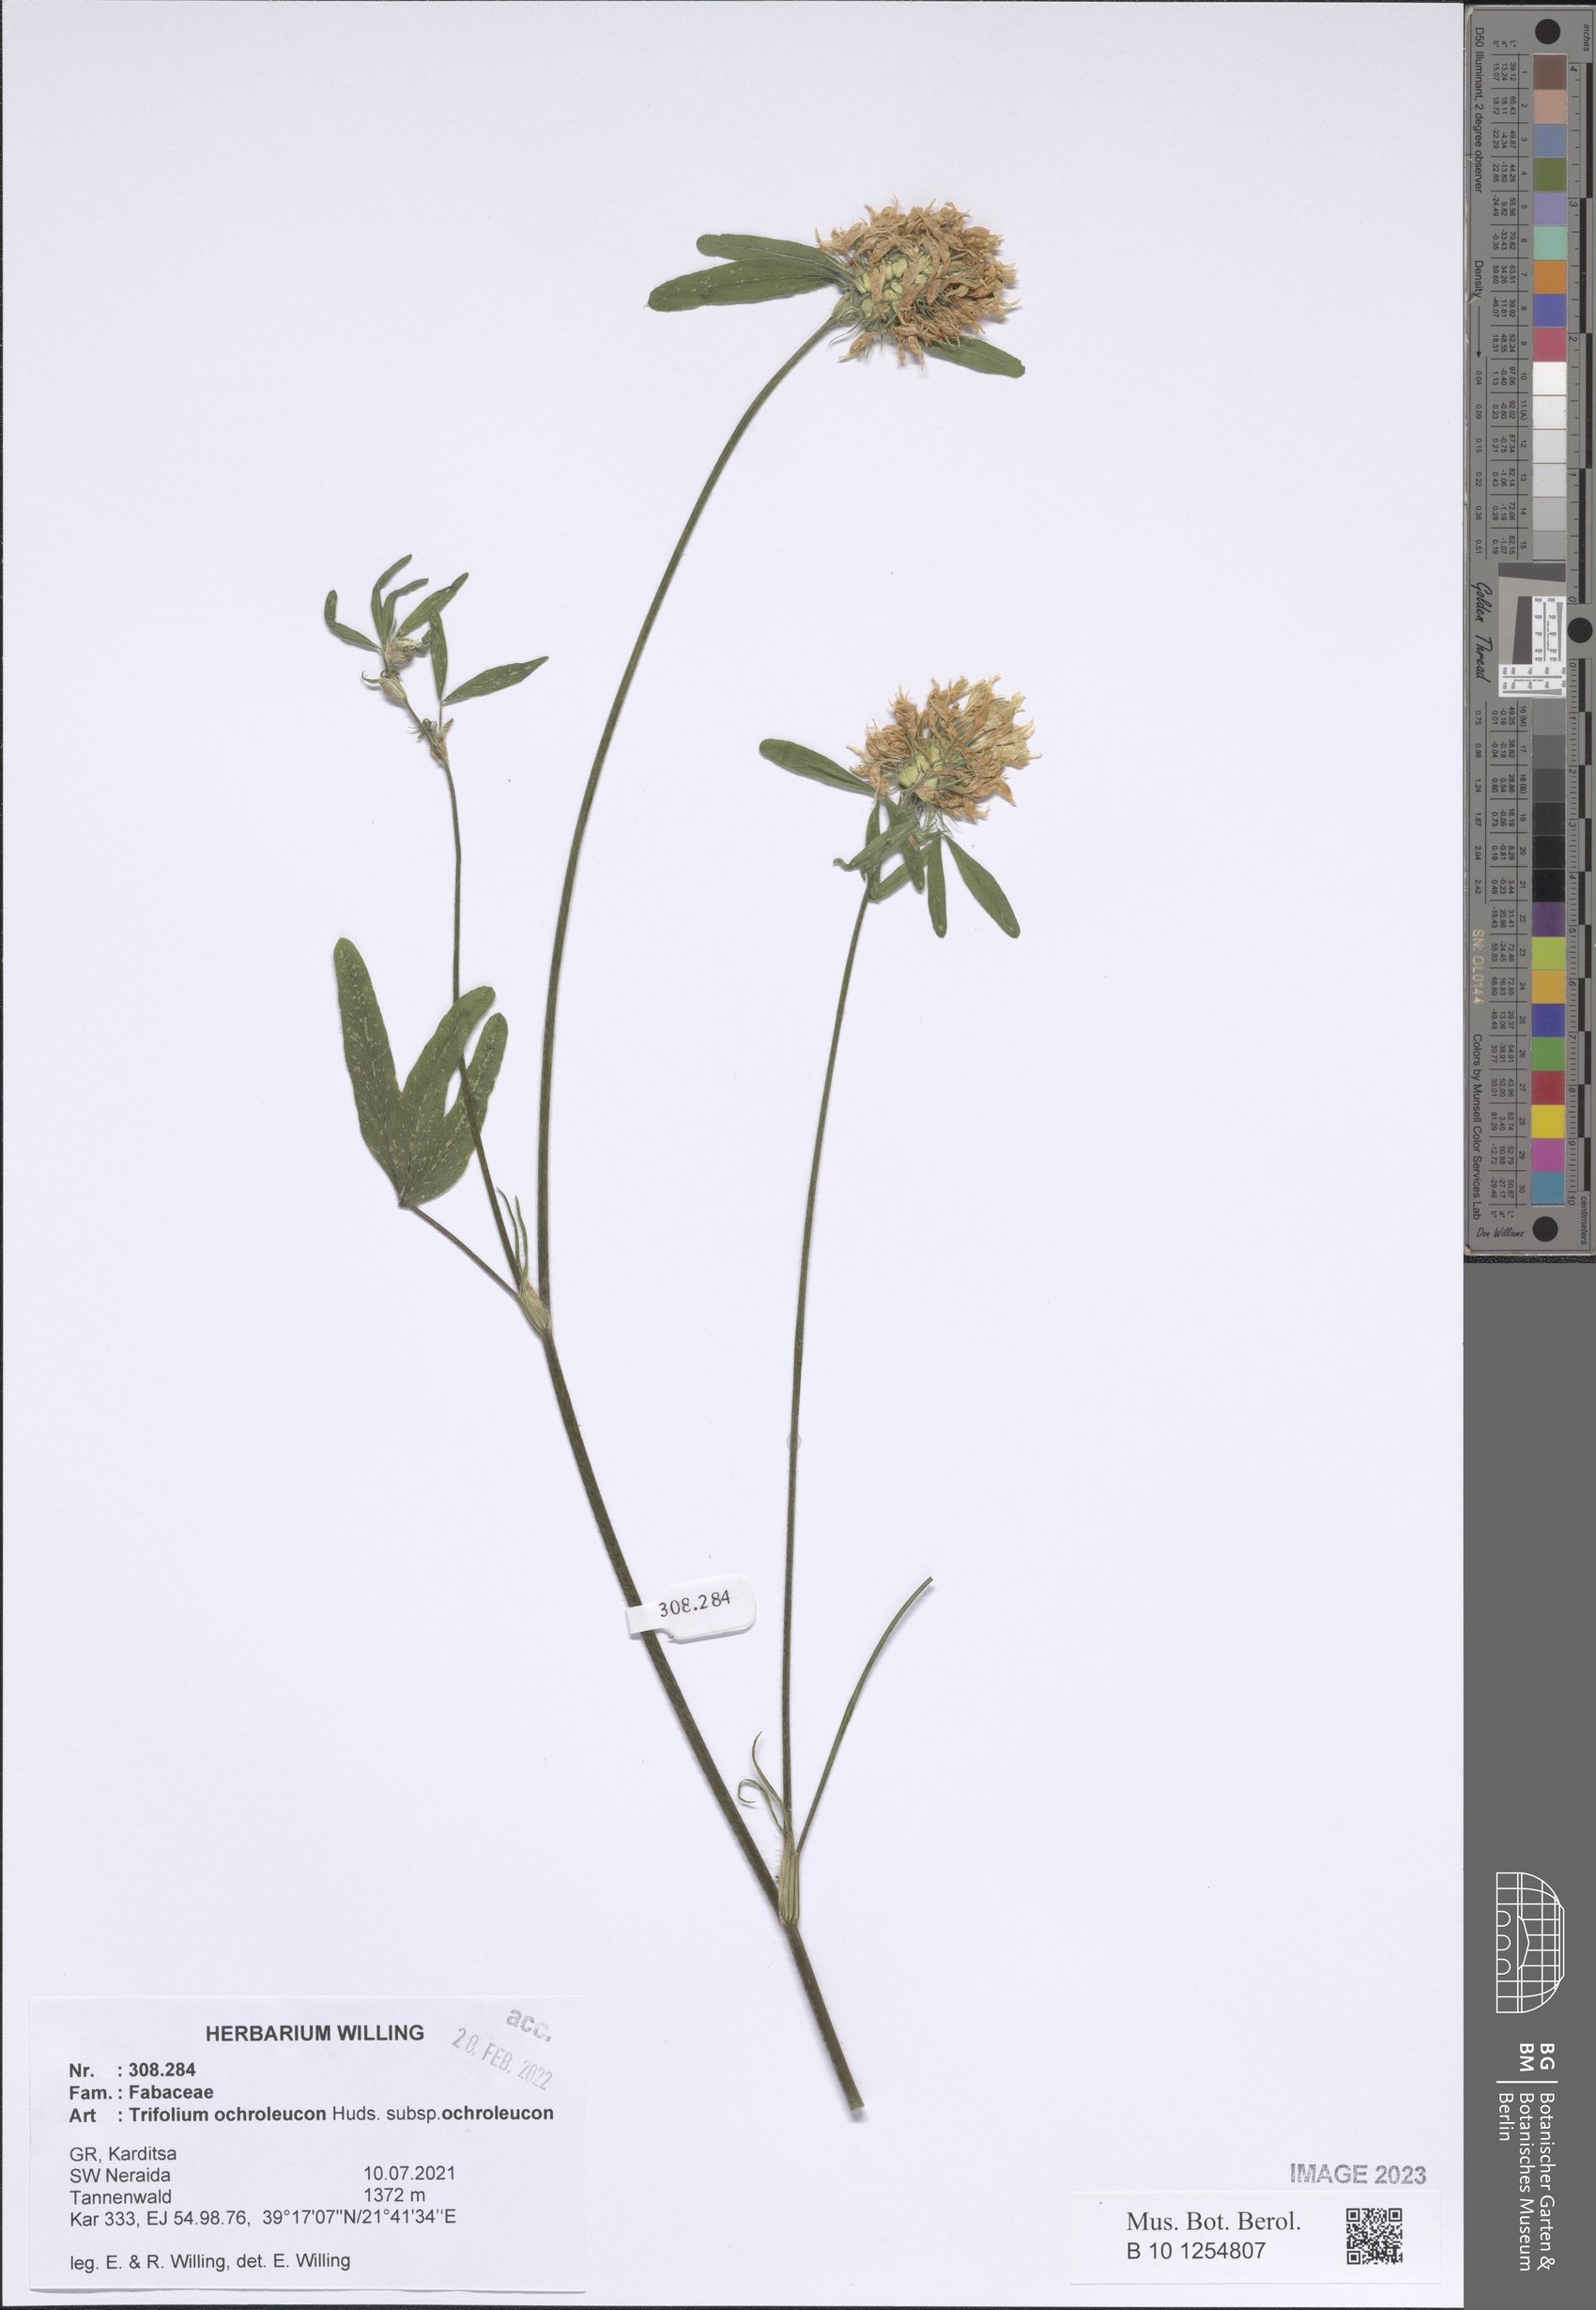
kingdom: Plantae
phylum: Tracheophyta
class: Magnoliopsida
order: Fabales
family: Fabaceae
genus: Trifolium
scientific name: Trifolium ochroleucon
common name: Sulphur clover
